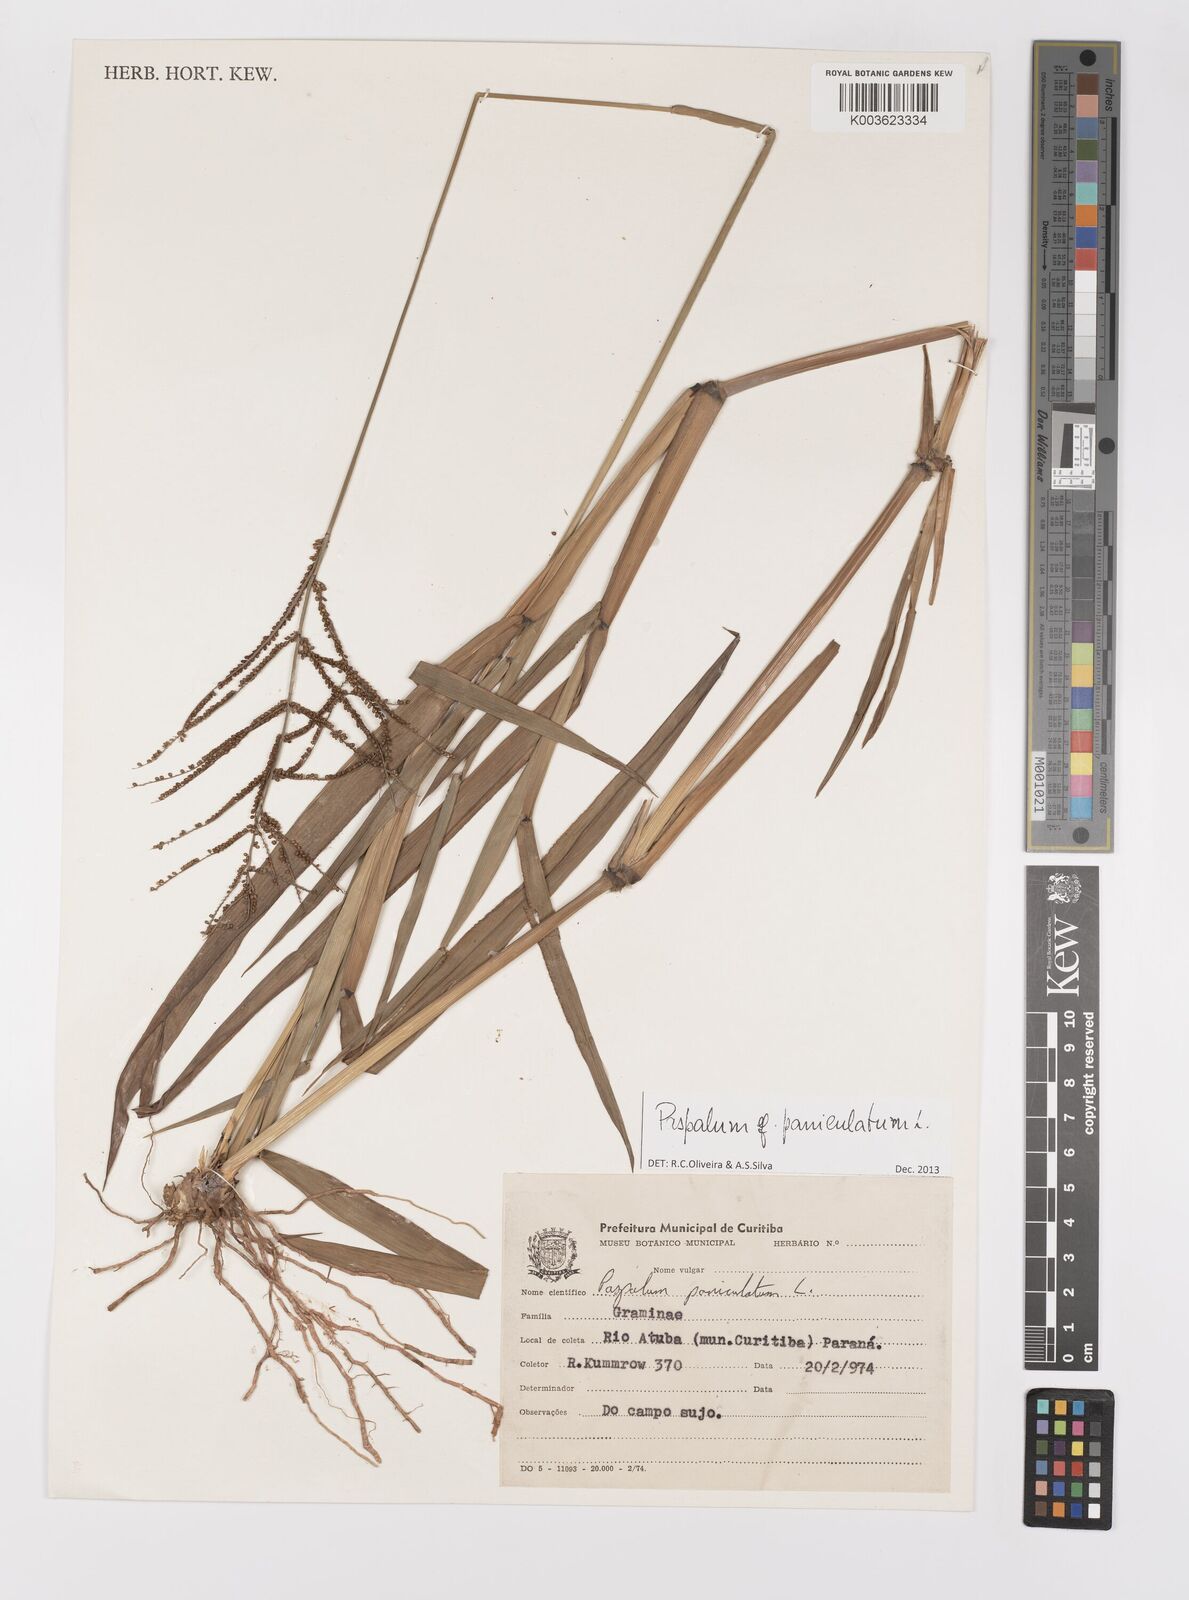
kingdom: Plantae
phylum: Tracheophyta
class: Liliopsida
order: Poales
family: Poaceae
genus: Paspalum
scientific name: Paspalum paniculatum
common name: Arrocillo
